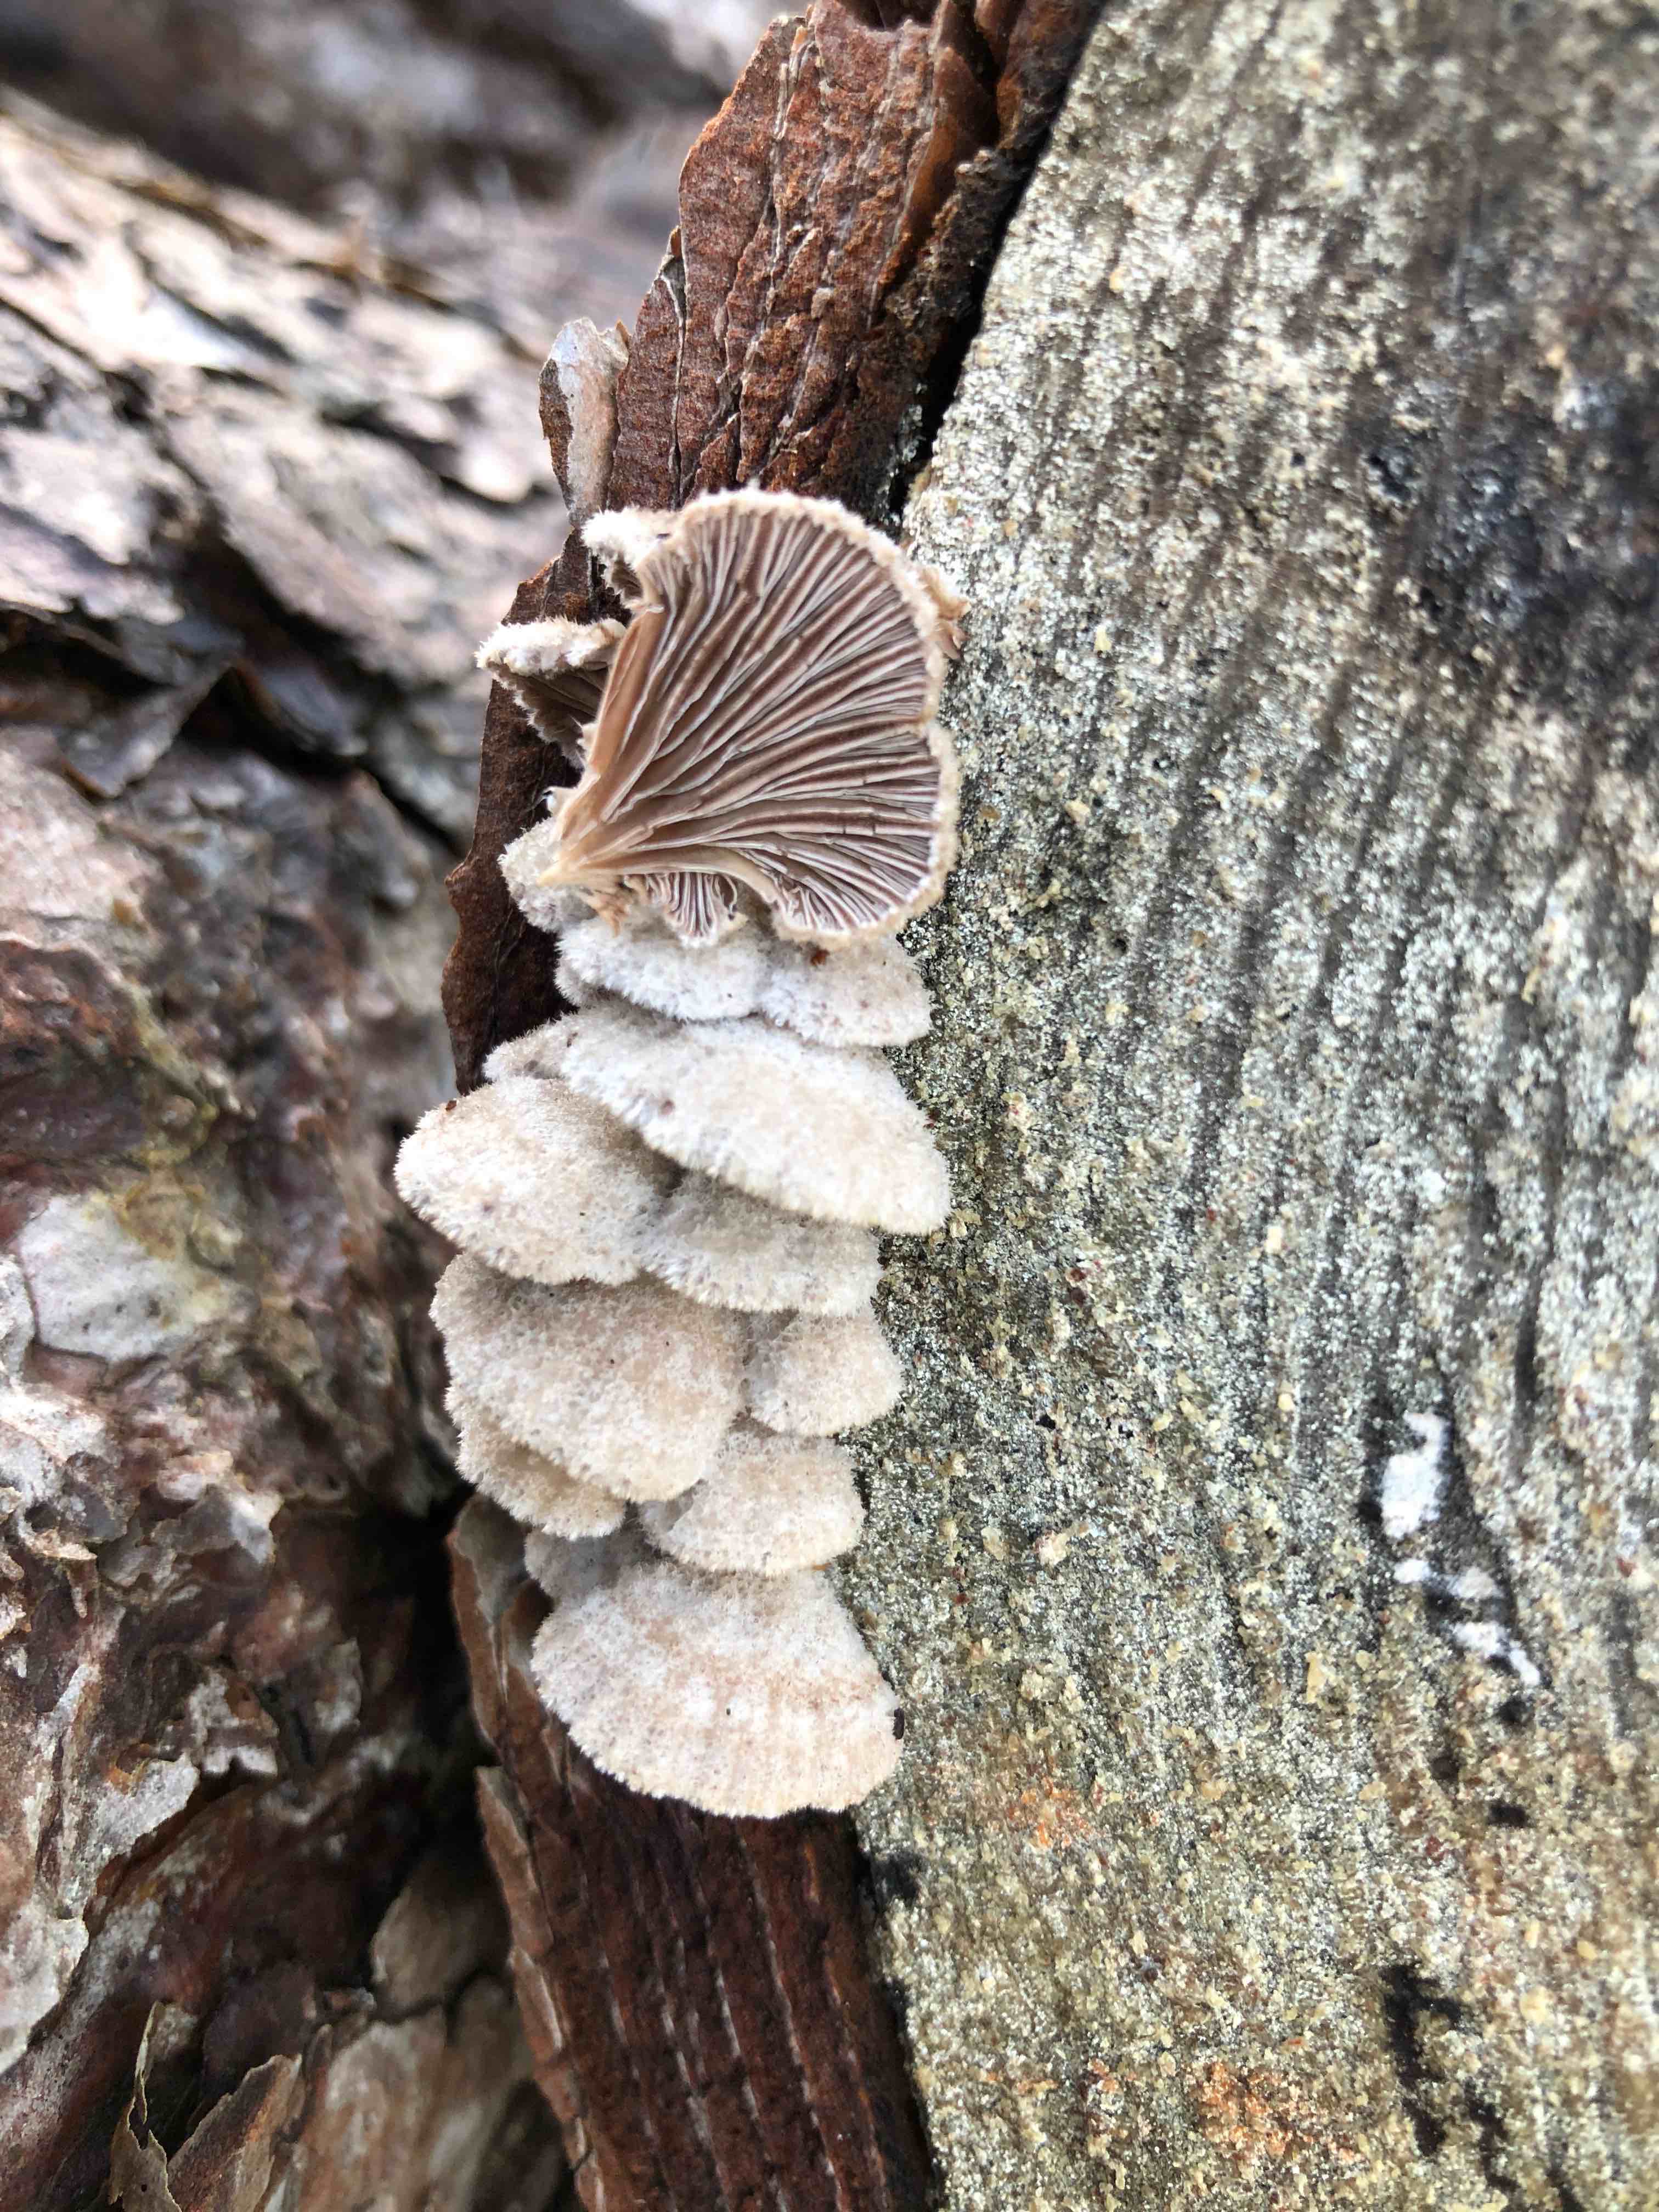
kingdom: Fungi
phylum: Basidiomycota
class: Agaricomycetes
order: Agaricales
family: Schizophyllaceae
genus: Schizophyllum
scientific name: Schizophyllum commune
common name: kløvblad
